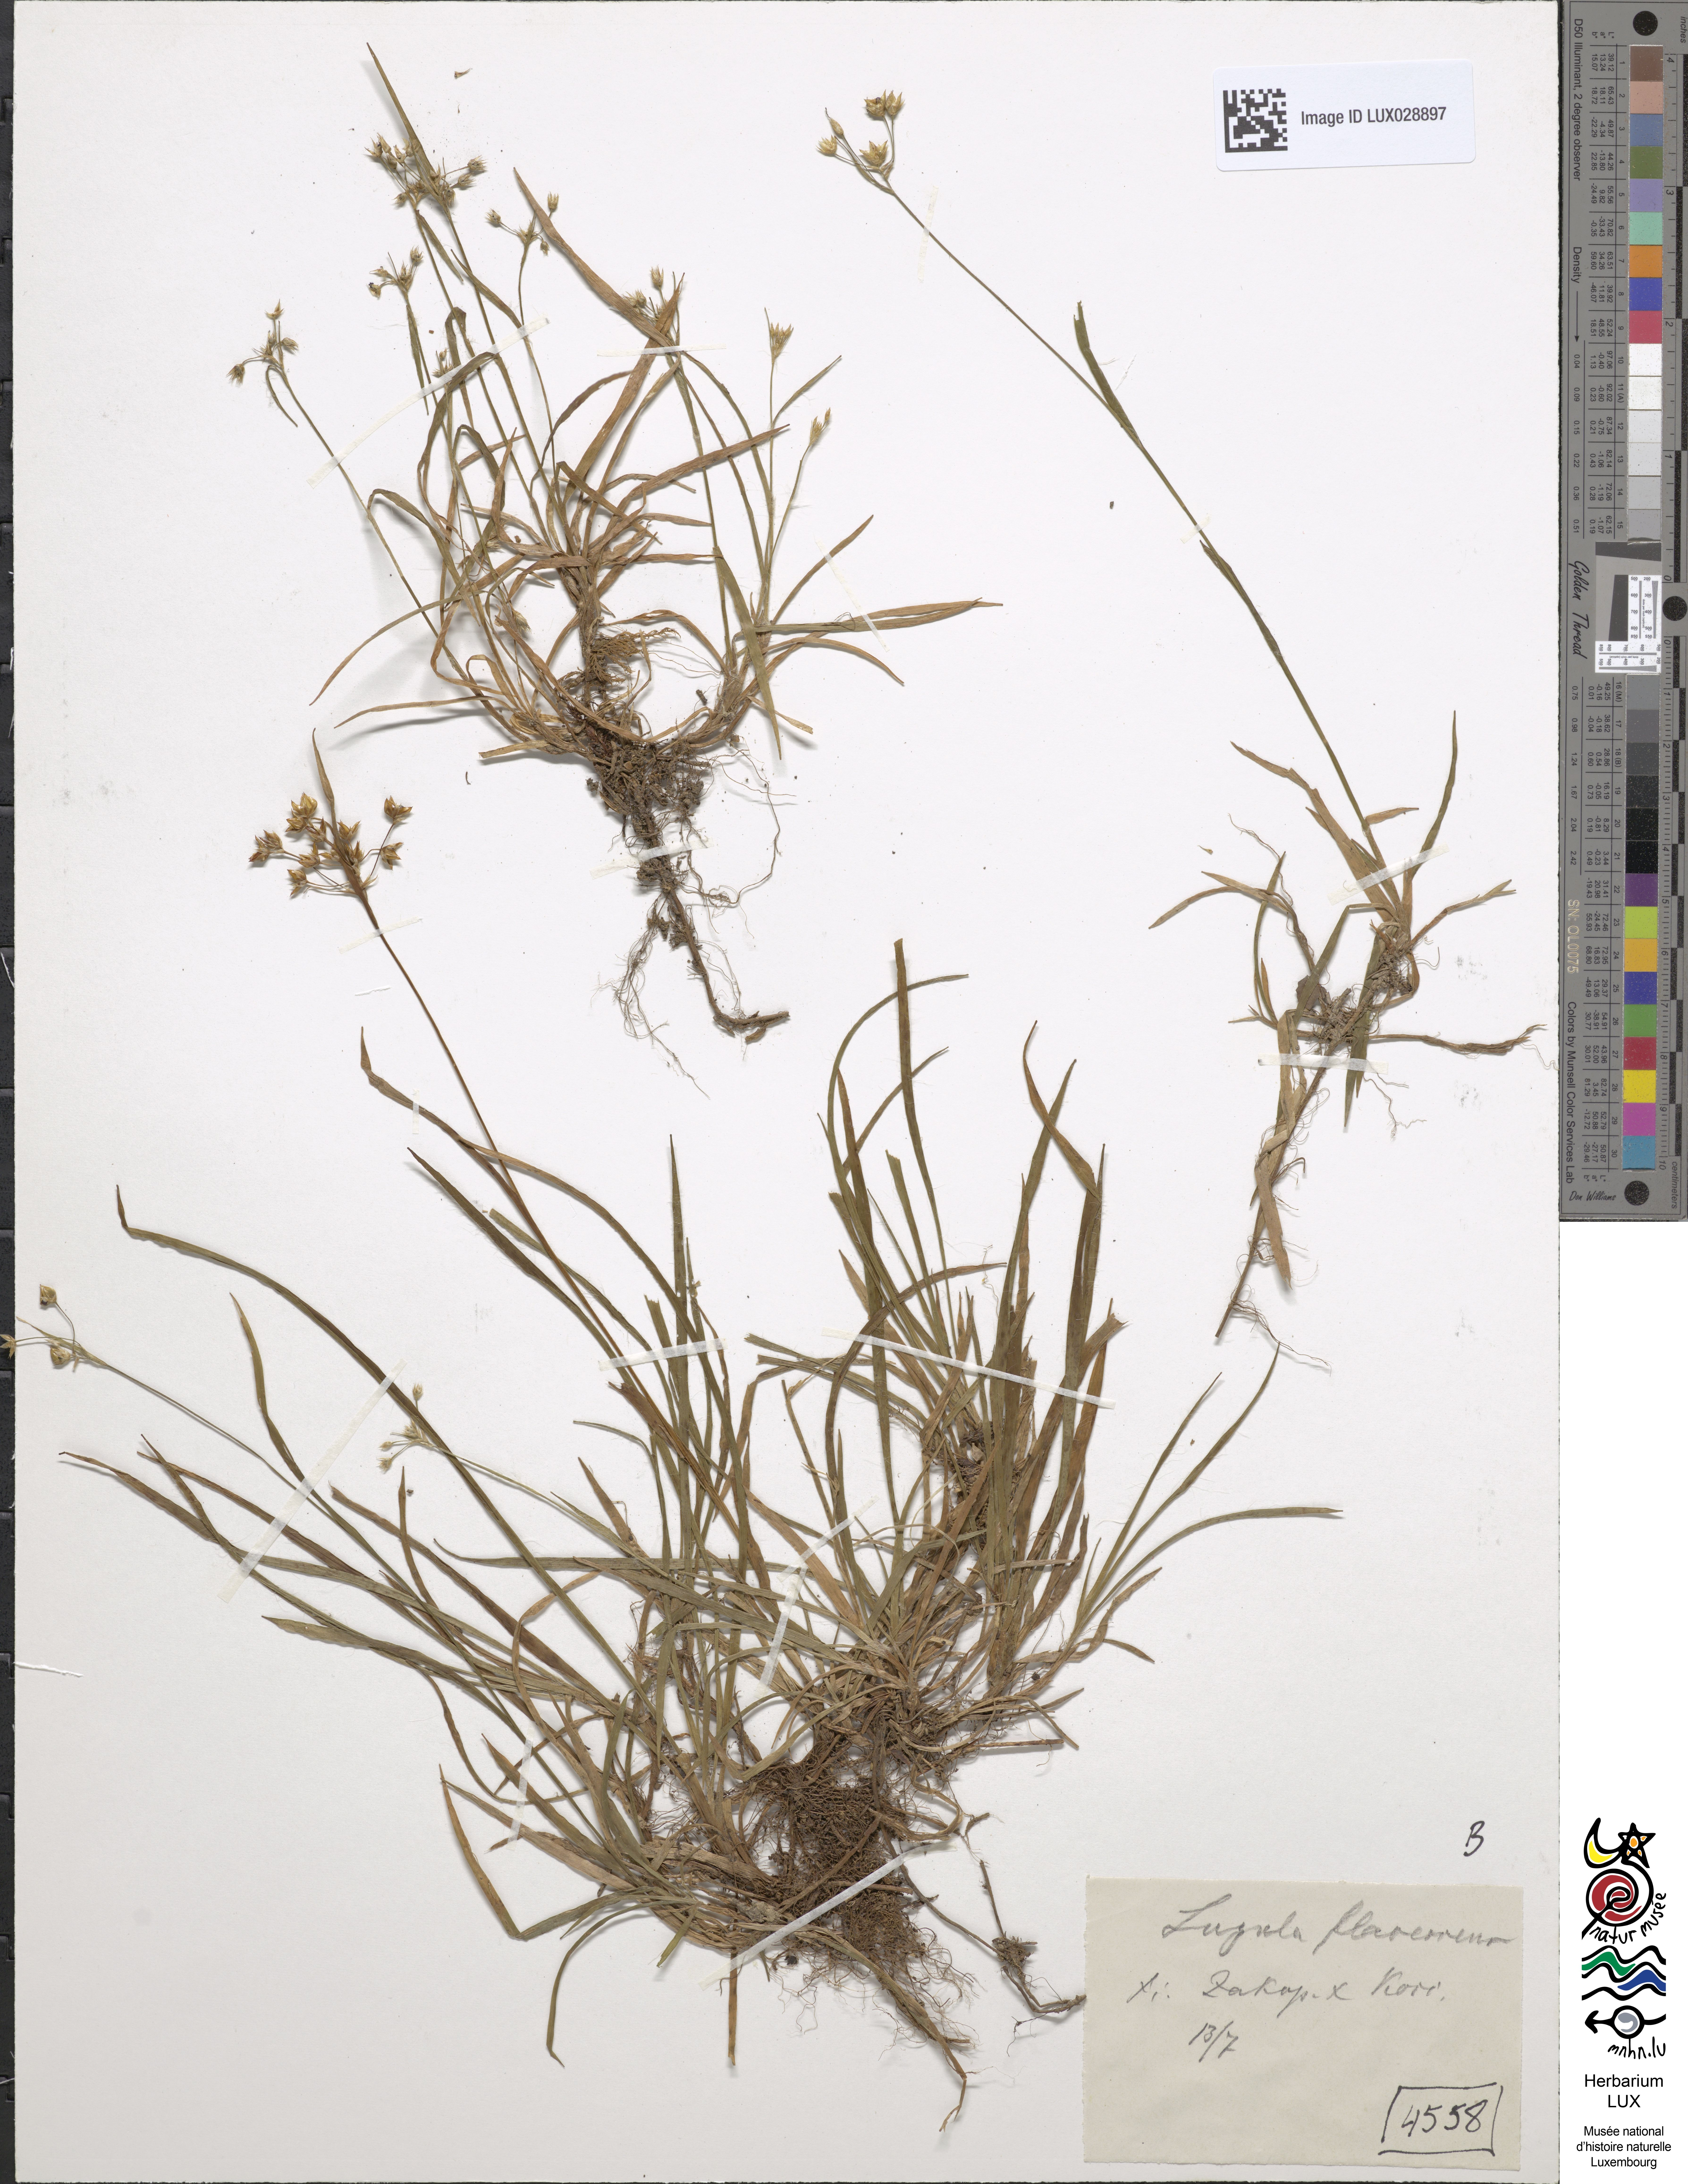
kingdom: Plantae
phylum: Tracheophyta
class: Liliopsida
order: Poales
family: Juncaceae
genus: Luzula
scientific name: Luzula luzulina
